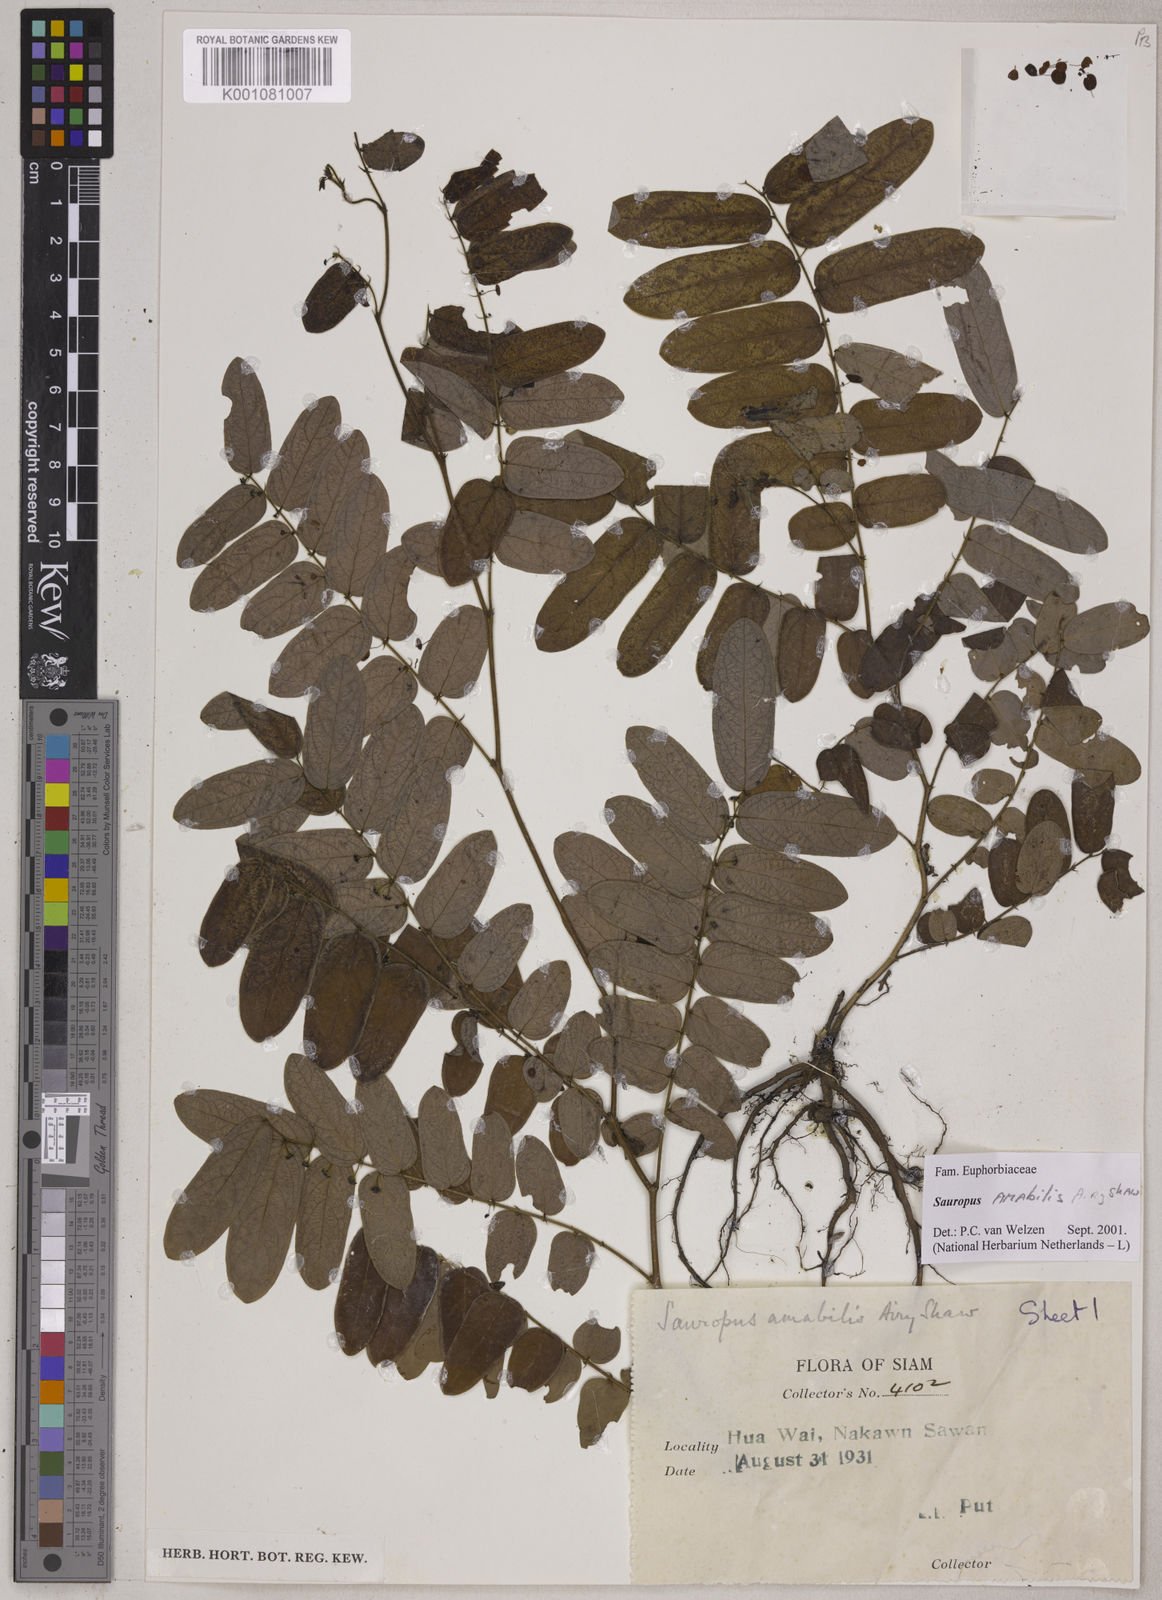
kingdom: Plantae
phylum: Tracheophyta
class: Magnoliopsida
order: Malpighiales
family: Phyllanthaceae
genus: Breynia
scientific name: Breynia amabilis
